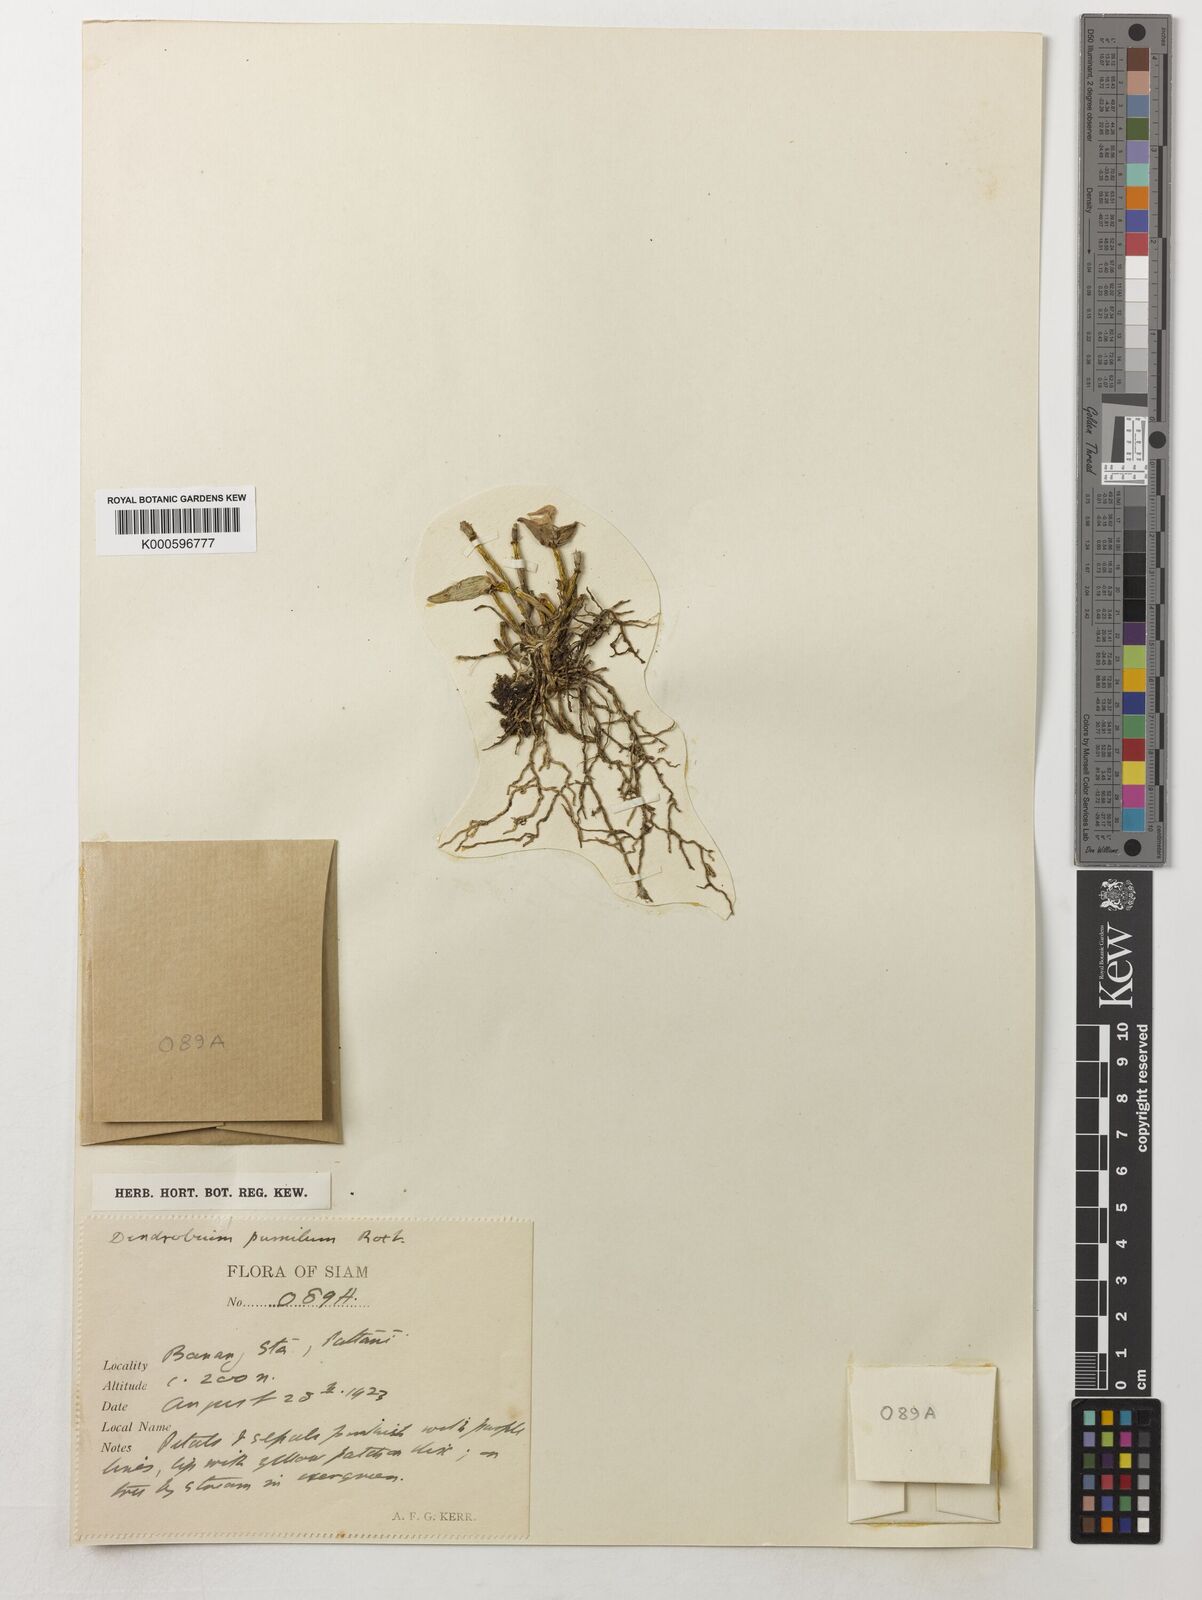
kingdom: Plantae
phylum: Tracheophyta
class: Liliopsida
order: Asparagales
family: Orchidaceae
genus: Dendrobium
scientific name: Dendrobium pachyphyllum
